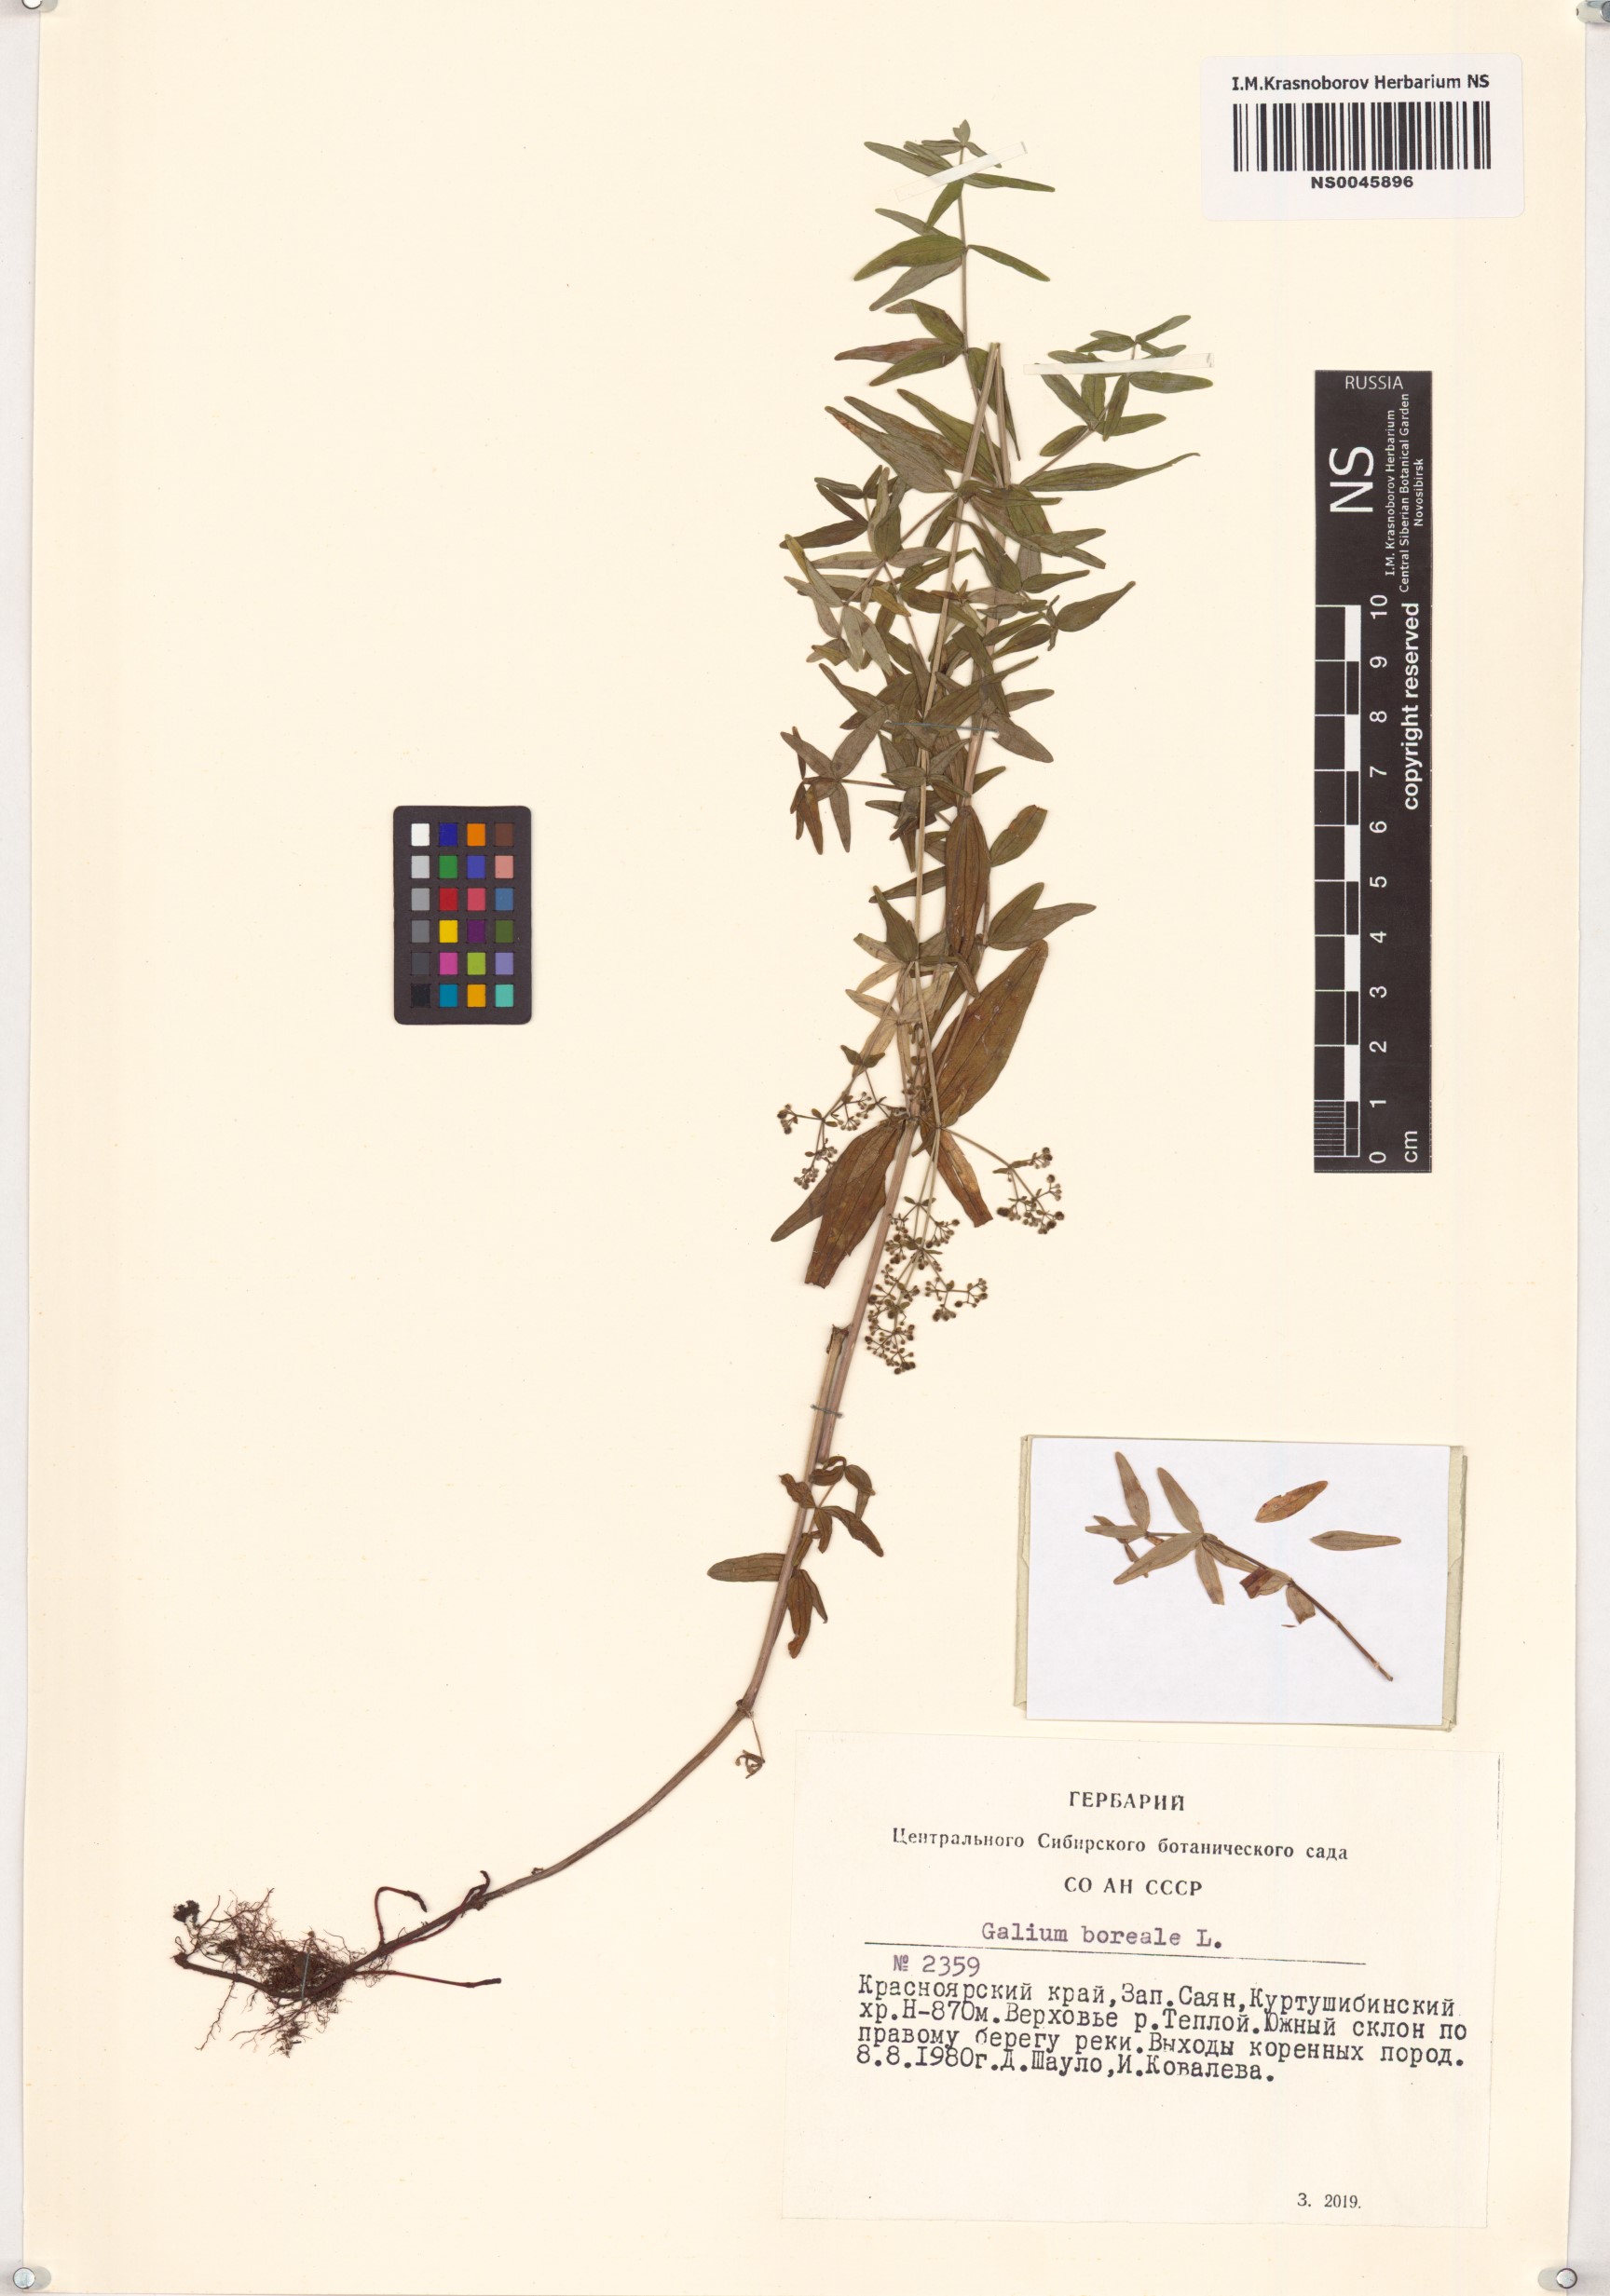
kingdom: Plantae
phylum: Tracheophyta
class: Magnoliopsida
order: Gentianales
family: Rubiaceae
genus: Galium
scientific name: Galium boreale
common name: Northern bedstraw
